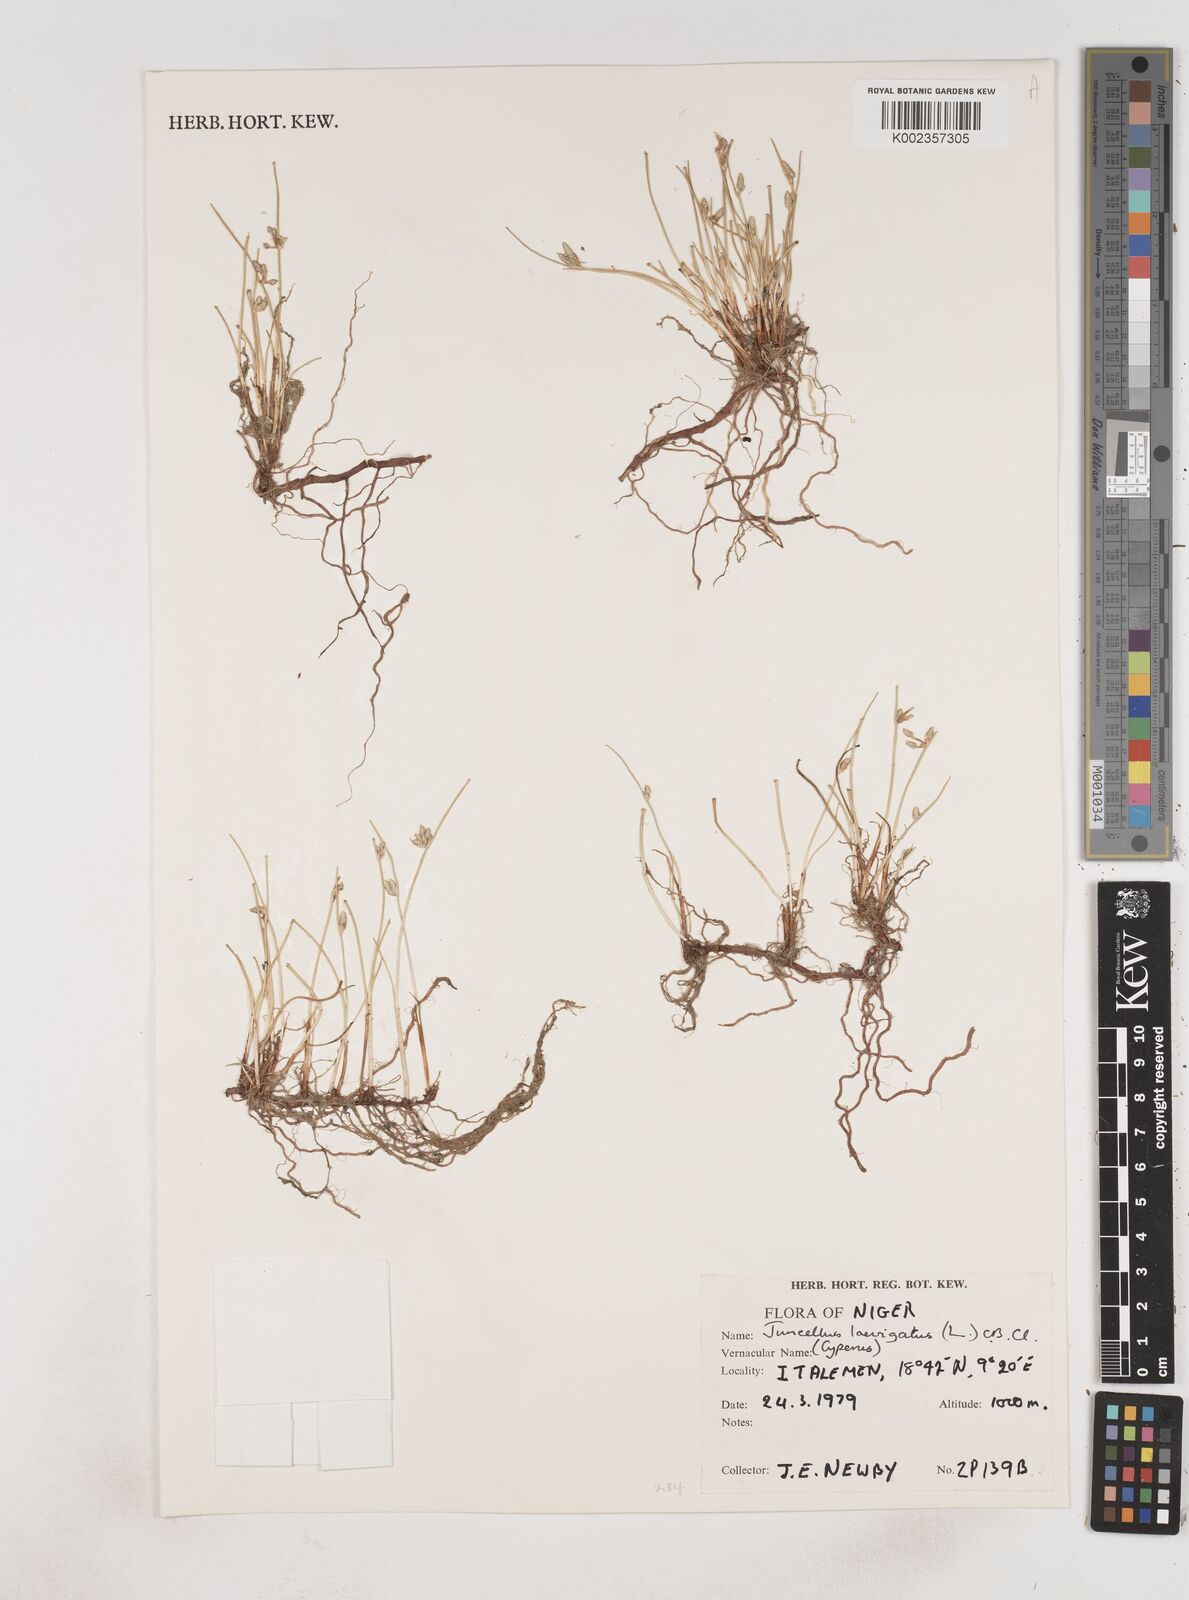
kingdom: Plantae
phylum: Tracheophyta
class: Liliopsida
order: Poales
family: Cyperaceae
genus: Cyperus
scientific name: Cyperus laevigatus
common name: Smooth flat sedge
